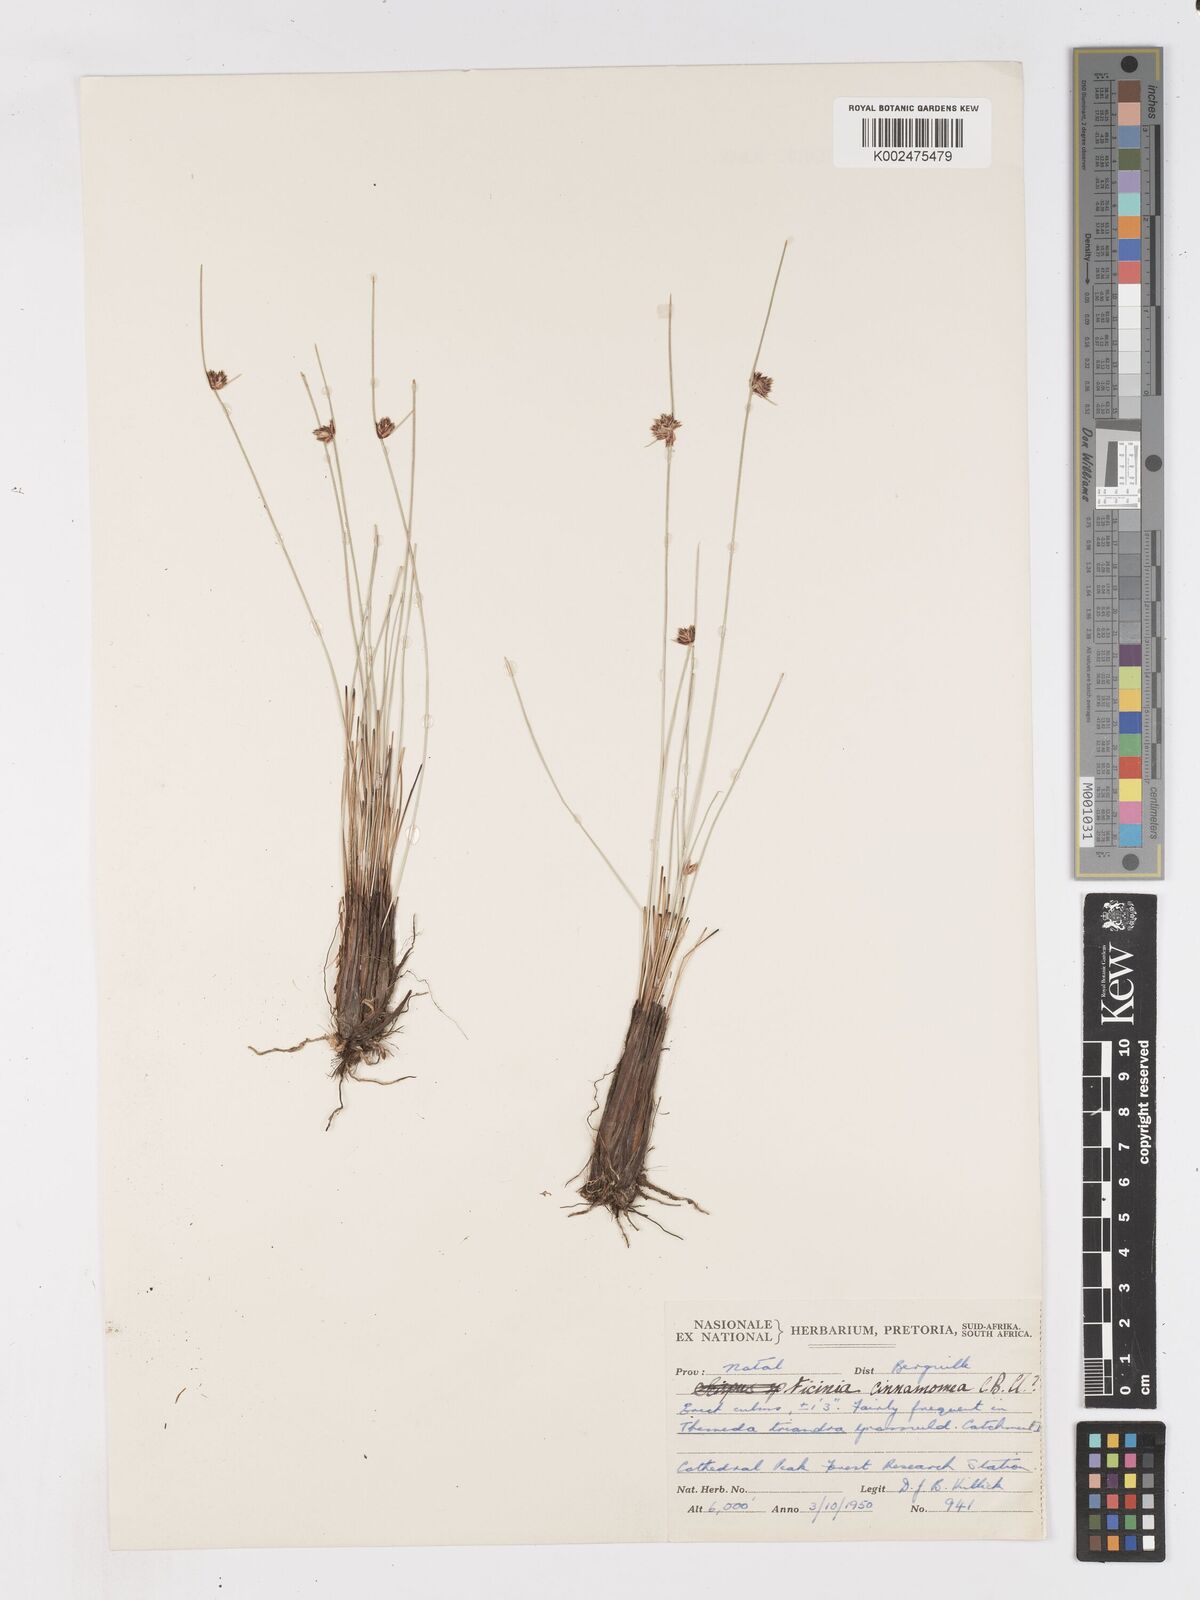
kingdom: Plantae
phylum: Tracheophyta
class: Liliopsida
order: Poales
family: Cyperaceae
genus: Ficinia
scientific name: Ficinia cinnamomea
